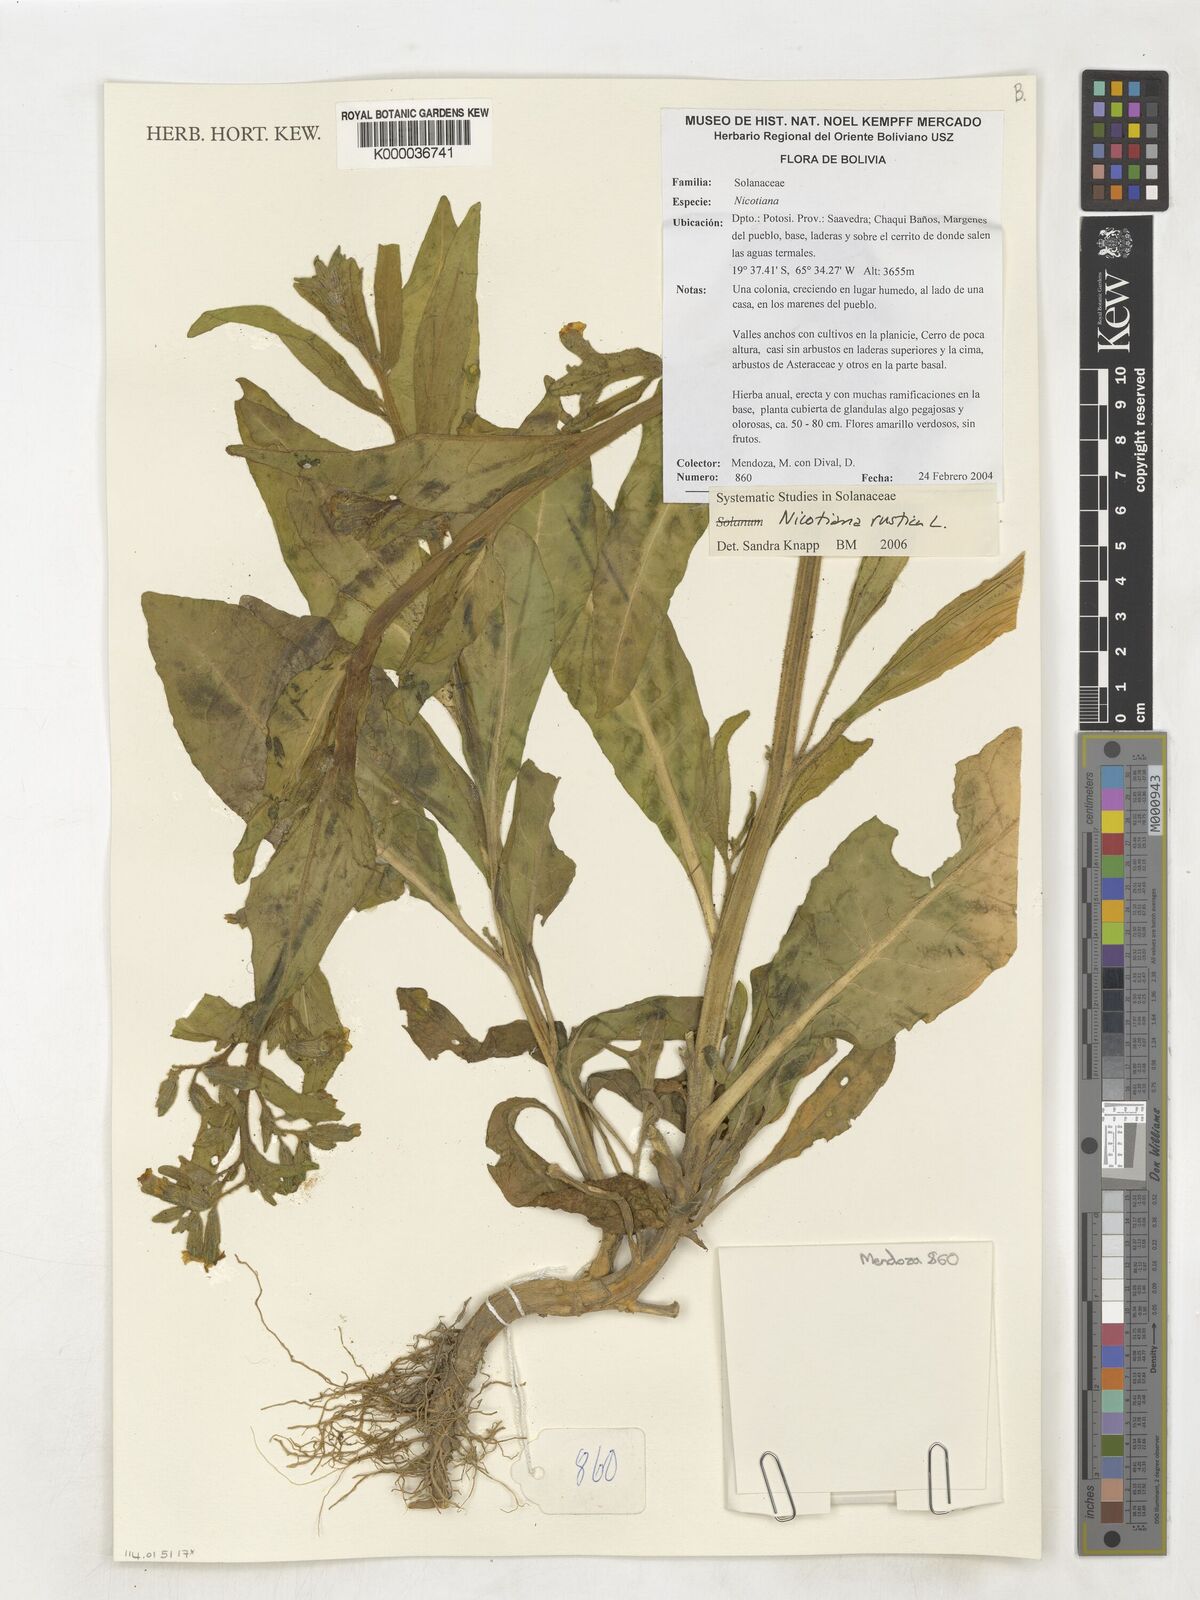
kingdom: Plantae
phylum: Tracheophyta
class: Magnoliopsida
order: Solanales
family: Solanaceae
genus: Nicotiana
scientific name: Nicotiana rustica
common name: Wild tobacco
